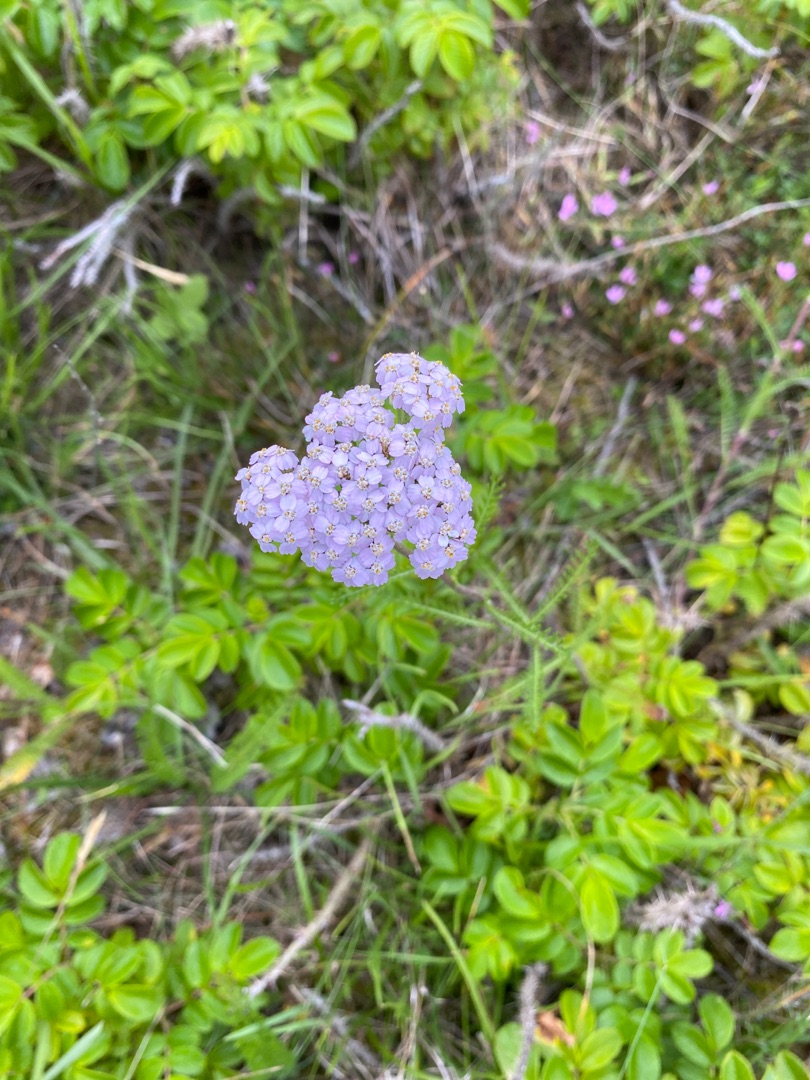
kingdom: Plantae
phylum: Tracheophyta
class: Magnoliopsida
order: Asterales
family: Asteraceae
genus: Achillea
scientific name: Achillea millefolium
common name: Almindelig røllike
